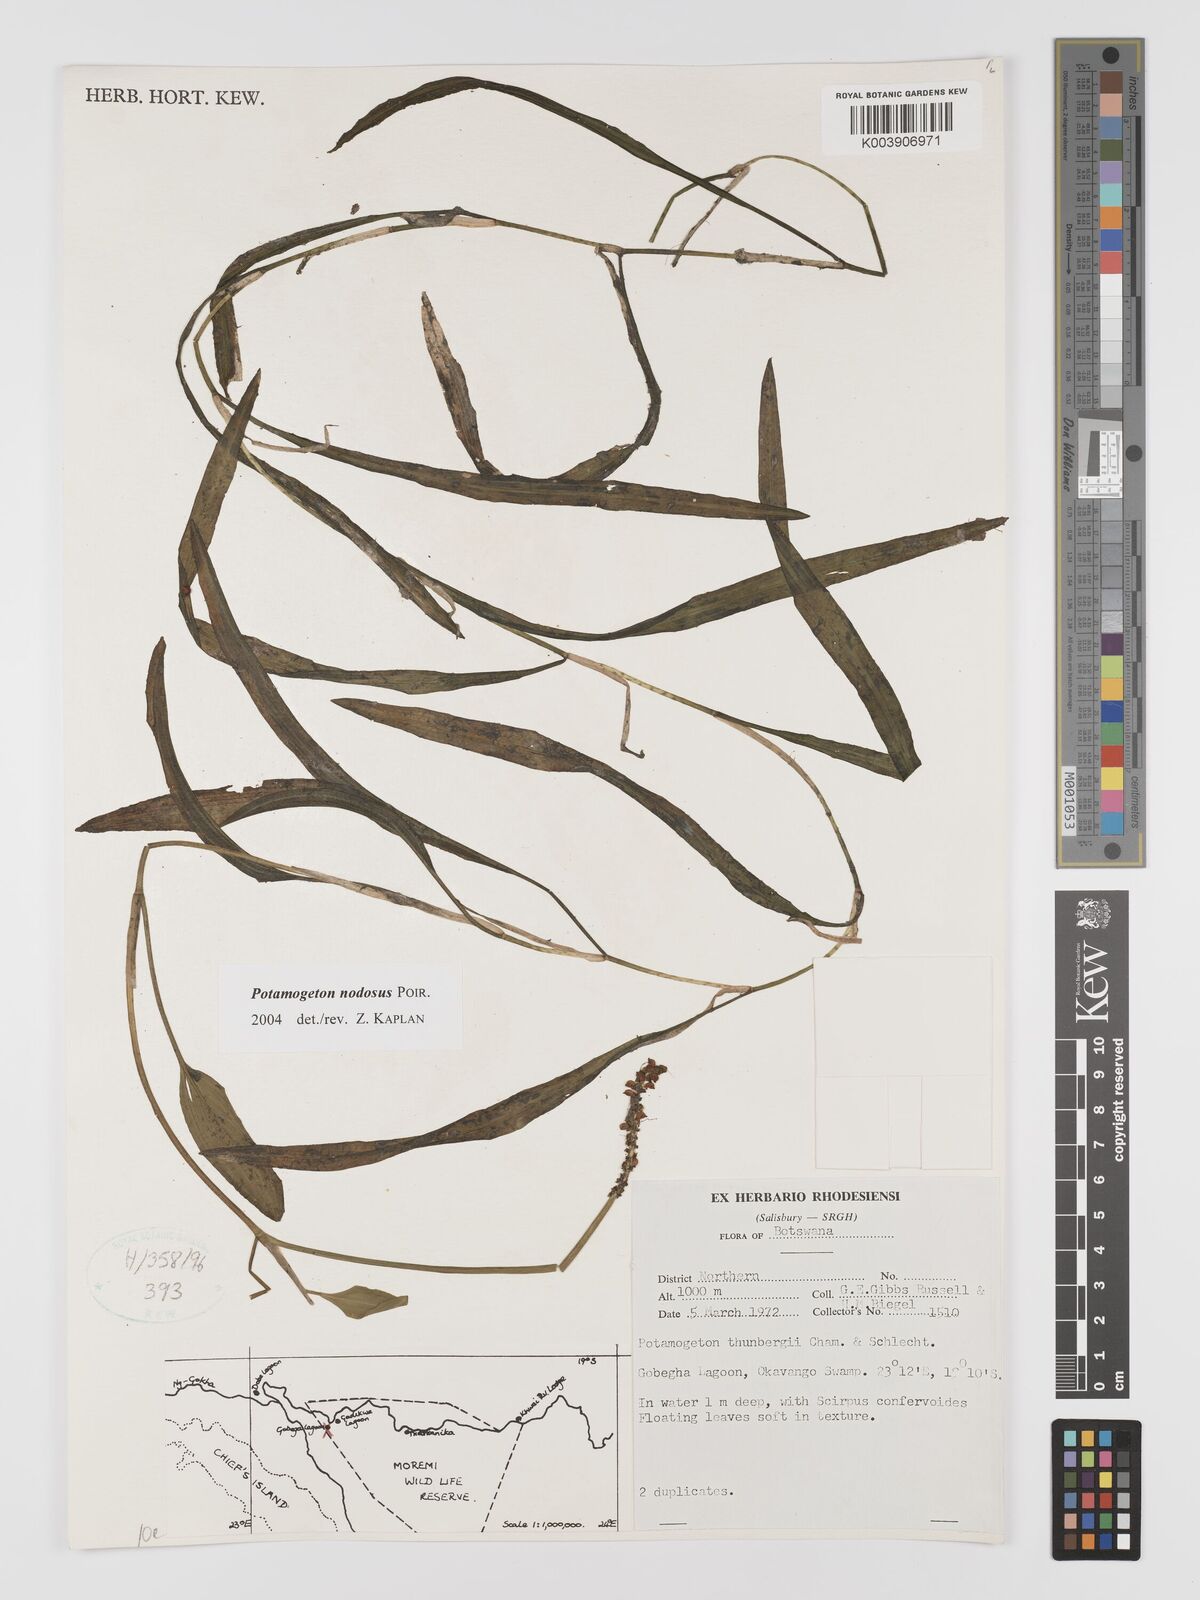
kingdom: Plantae
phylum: Tracheophyta
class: Liliopsida
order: Alismatales
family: Potamogetonaceae
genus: Potamogeton
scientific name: Potamogeton nodosus
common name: Loddon pondweed
